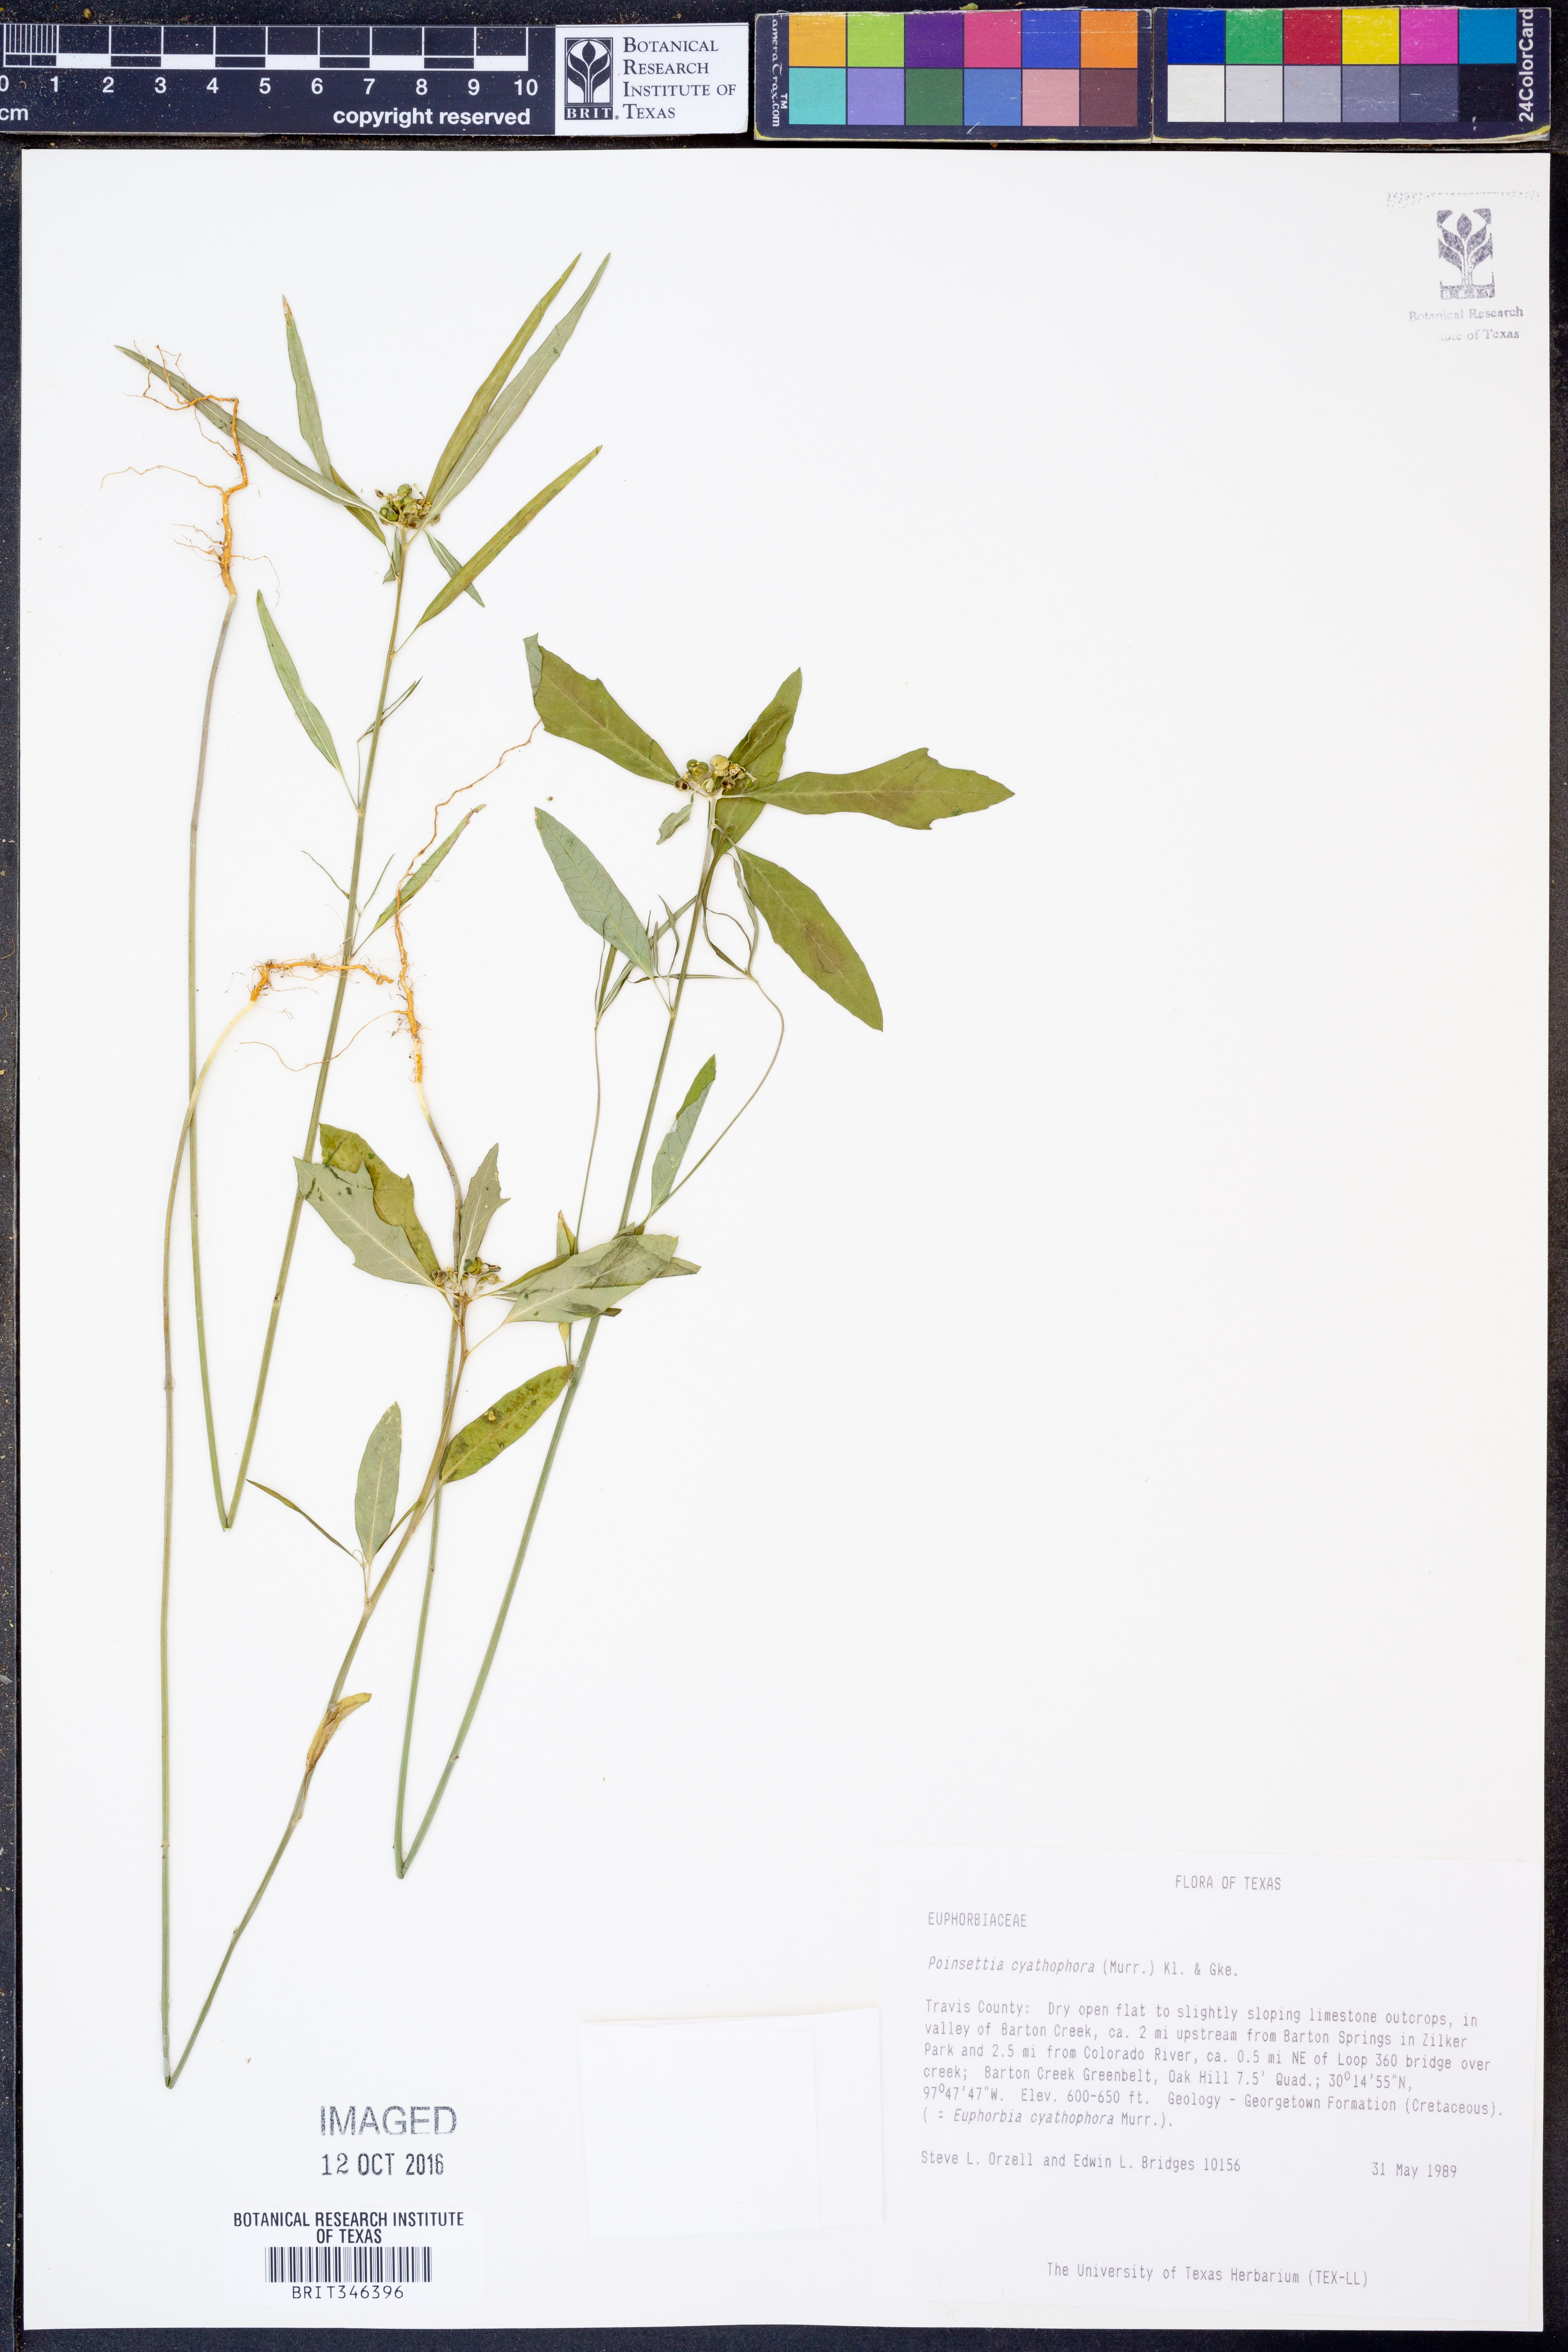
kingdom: Plantae
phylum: Tracheophyta
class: Magnoliopsida
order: Malpighiales
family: Euphorbiaceae
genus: Euphorbia
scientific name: Euphorbia heterophylla
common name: Mexican fireplant
